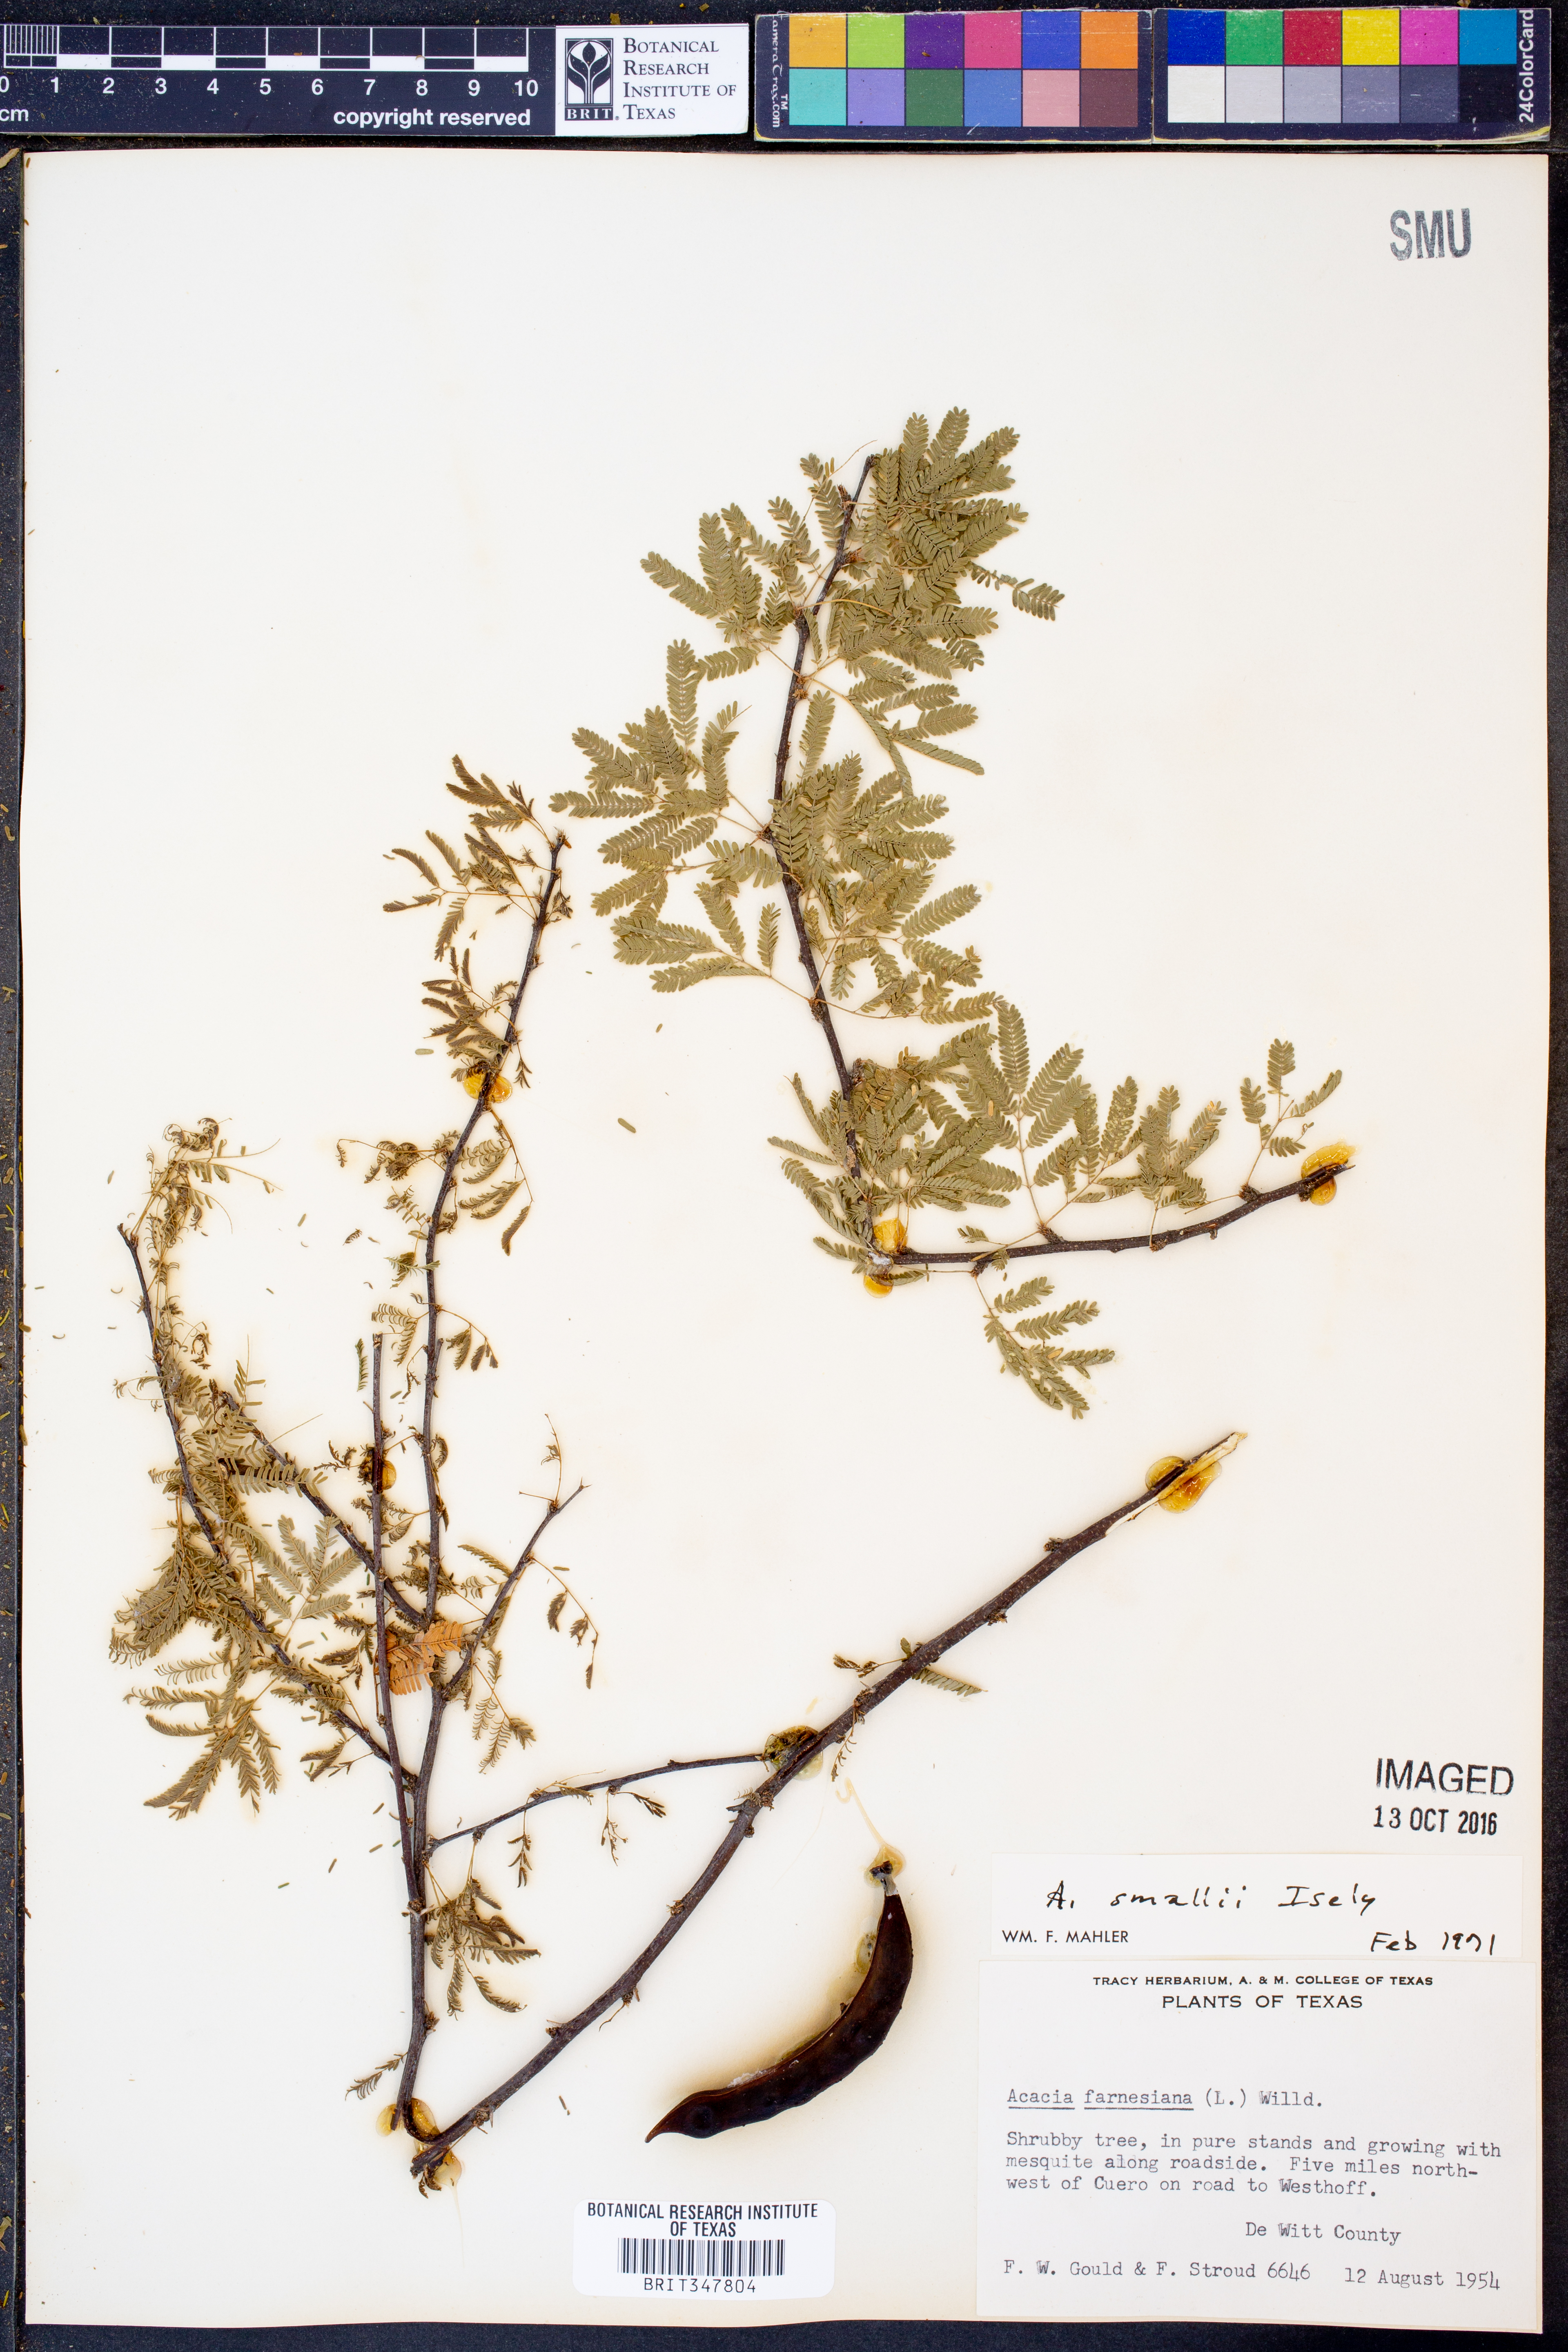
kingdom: Plantae
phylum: Tracheophyta
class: Magnoliopsida
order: Fabales
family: Fabaceae
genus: Vachellia
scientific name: Vachellia farnesiana
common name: Sweet acacia
